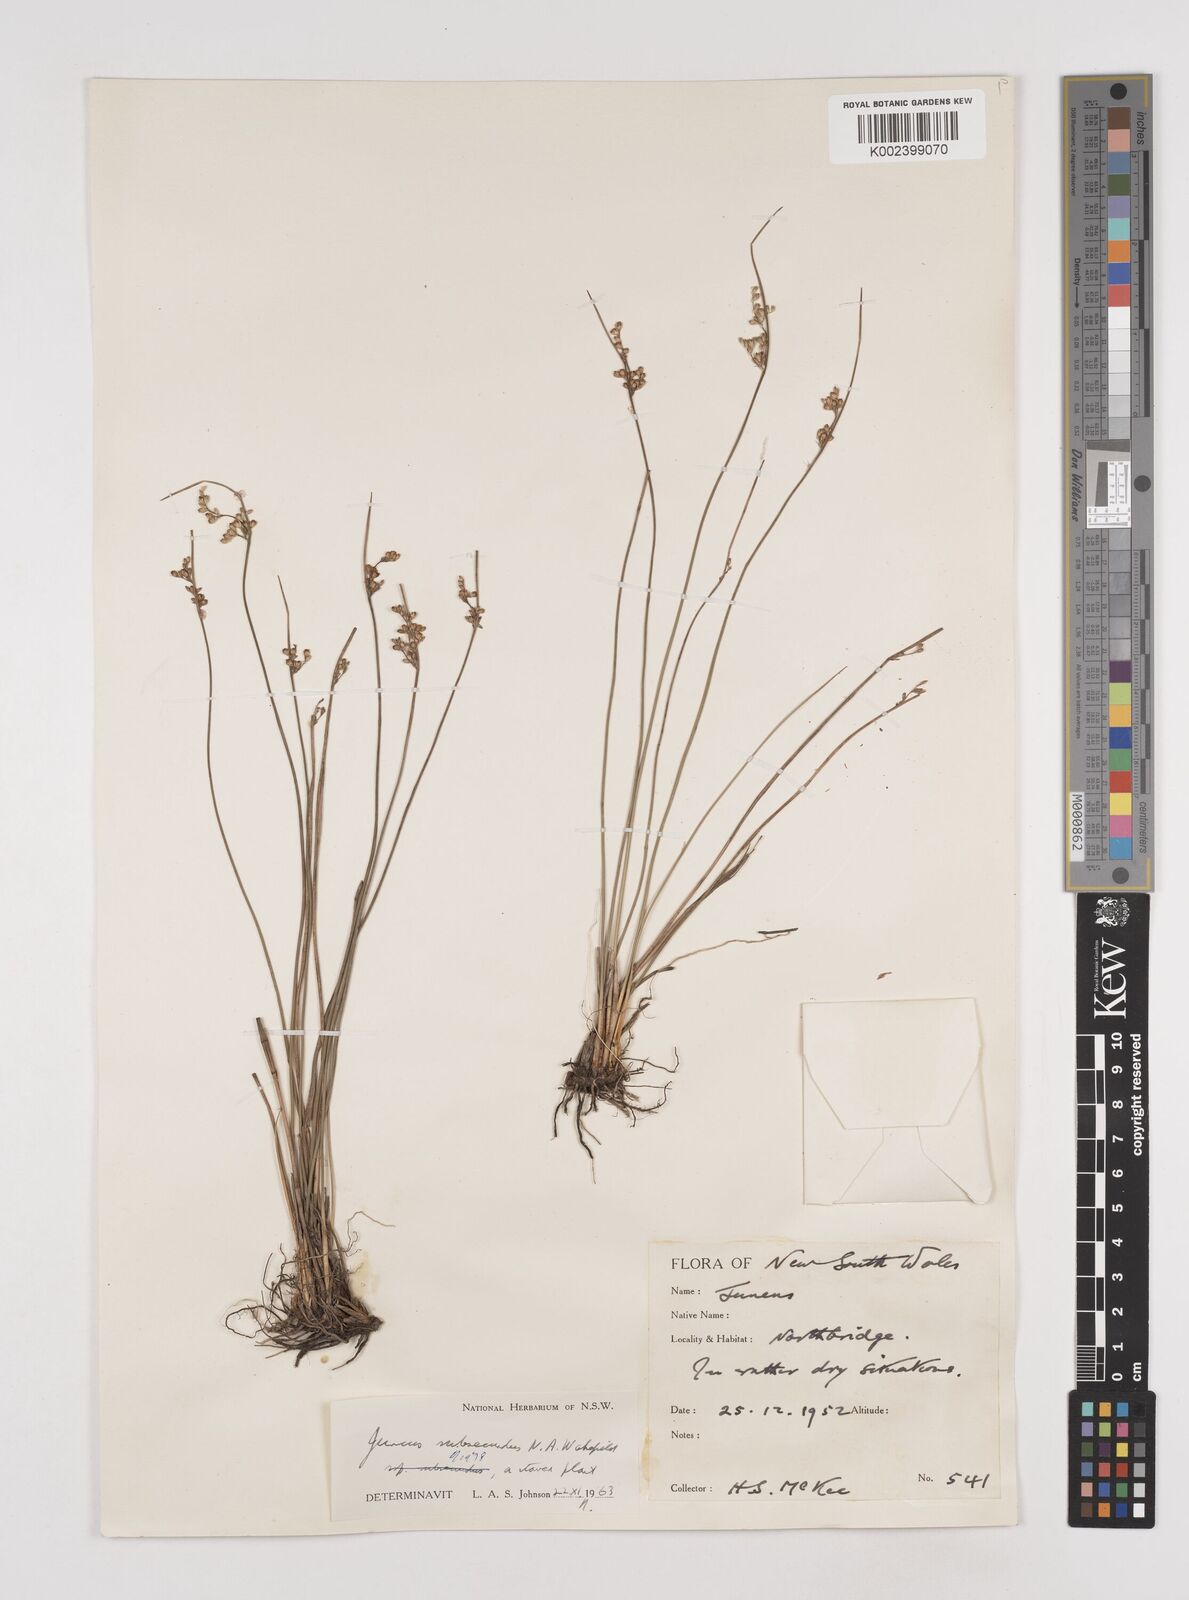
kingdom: Plantae
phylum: Tracheophyta
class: Liliopsida
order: Poales
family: Juncaceae
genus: Juncus
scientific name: Juncus subsecundus
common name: Fingered rush
